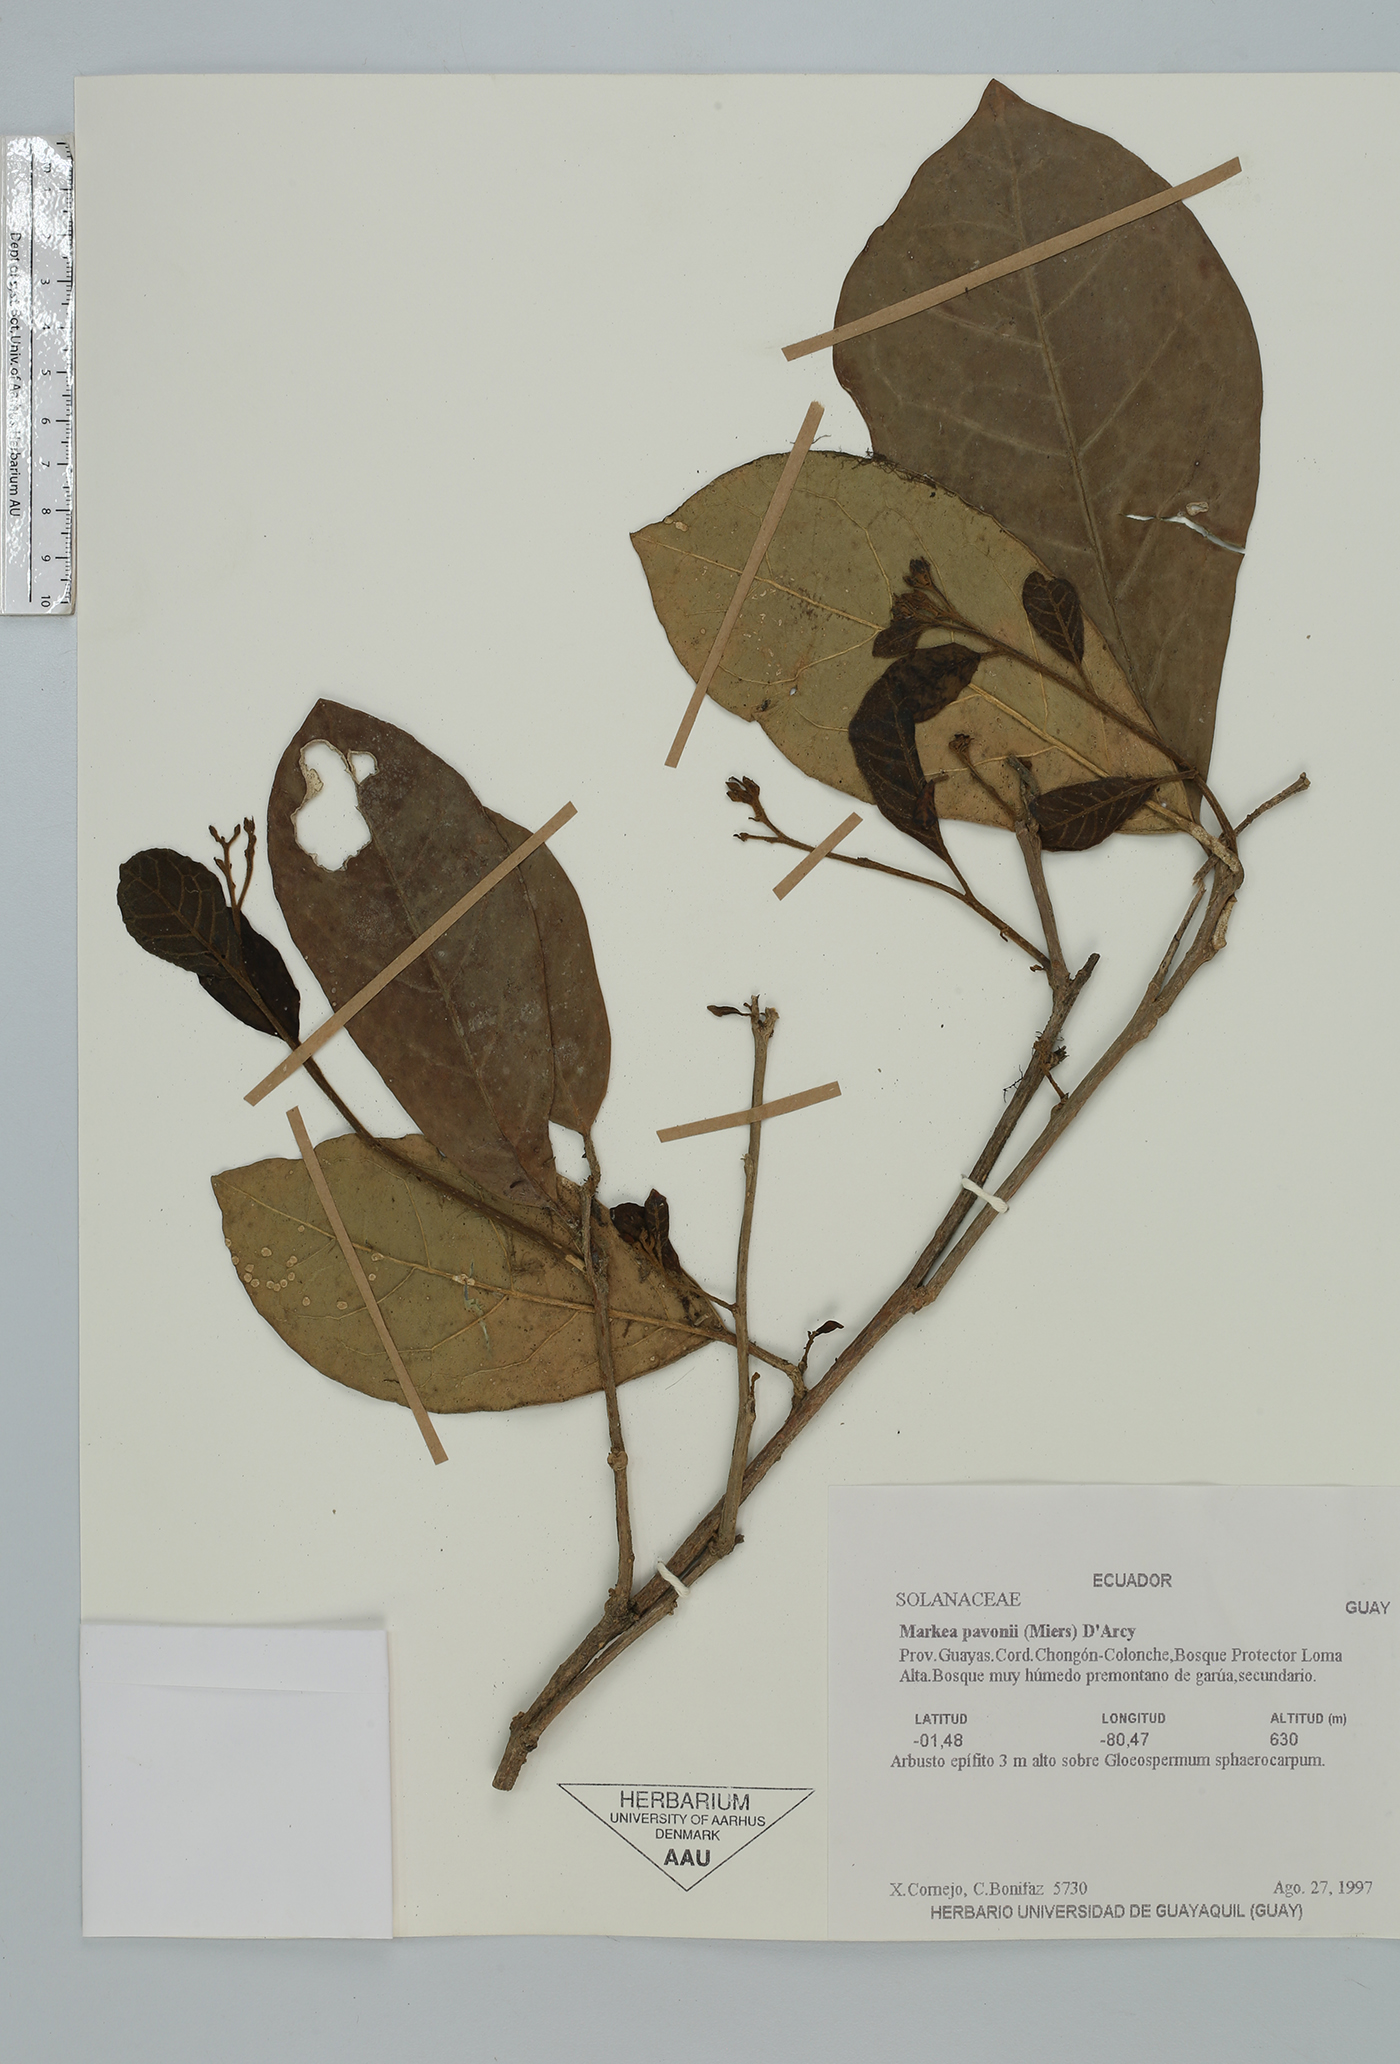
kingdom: Plantae
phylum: Tracheophyta
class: Magnoliopsida
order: Solanales
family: Solanaceae
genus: Markea
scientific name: Markea pavonii
